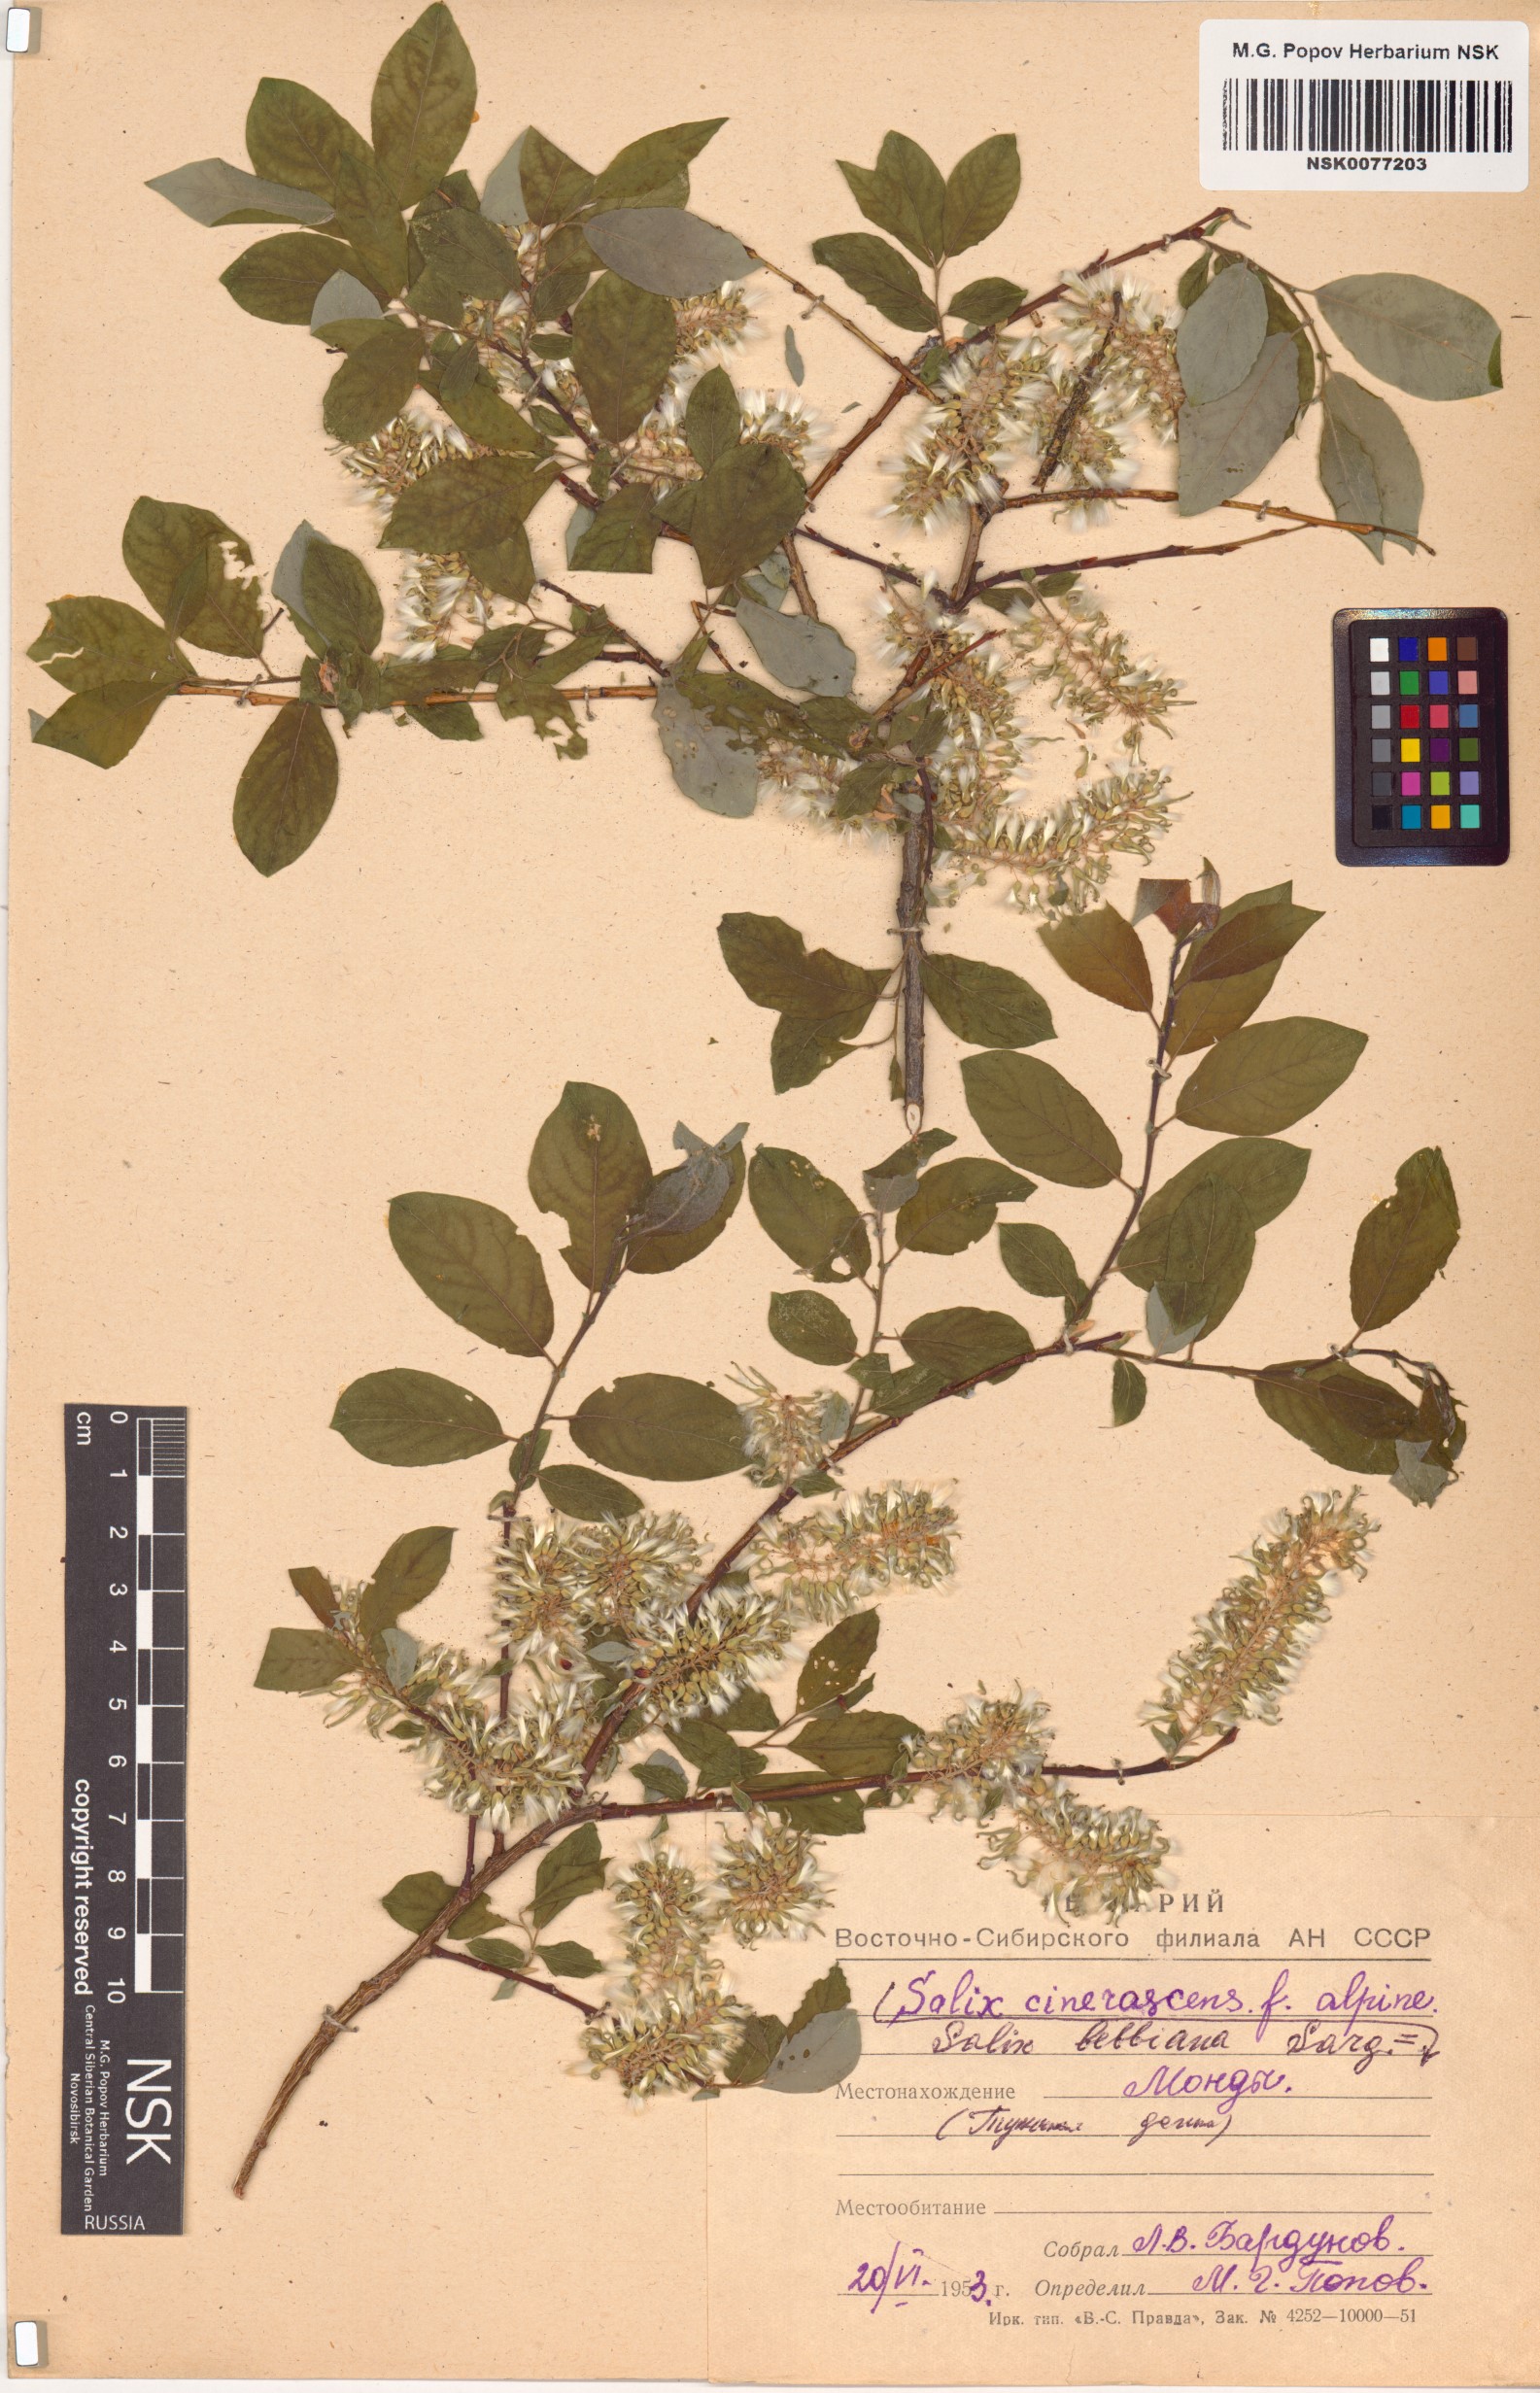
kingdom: Plantae
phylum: Tracheophyta
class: Magnoliopsida
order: Malpighiales
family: Salicaceae
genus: Salix
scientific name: Salix bebbiana
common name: Bebb's willow
